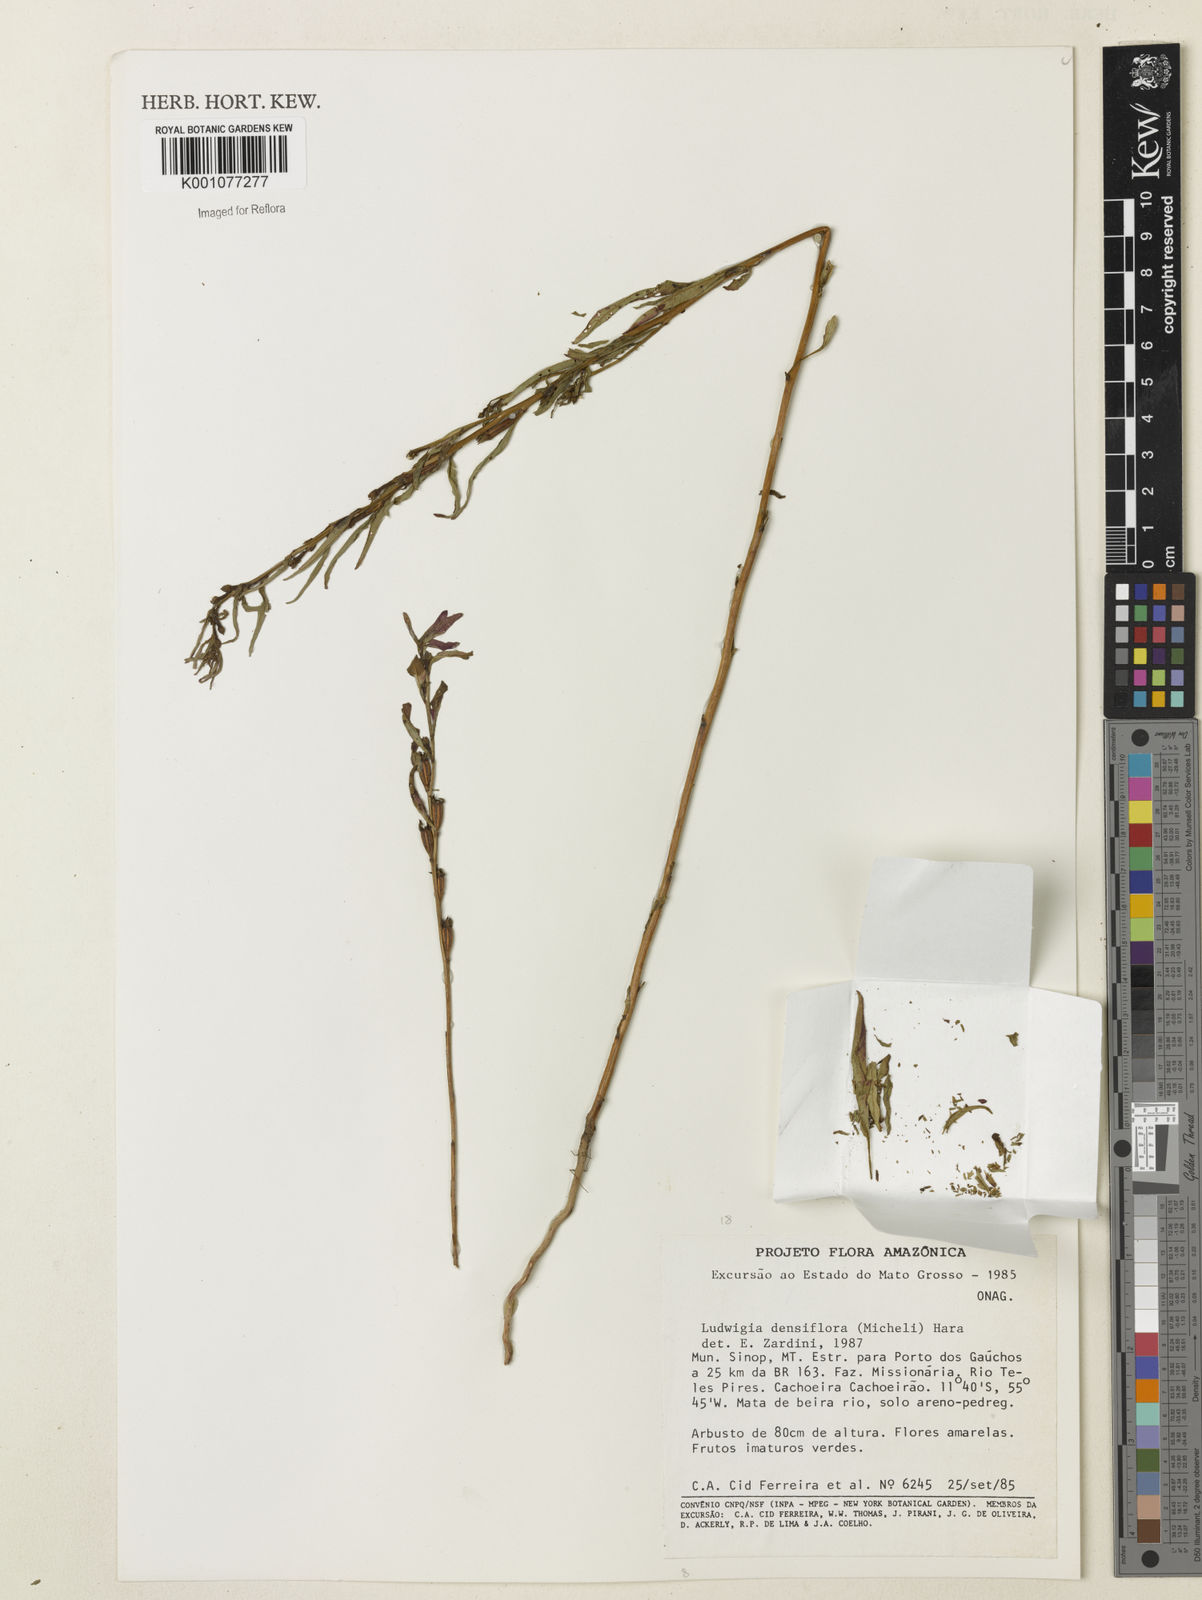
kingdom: Plantae
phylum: Tracheophyta
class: Magnoliopsida
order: Myrtales
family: Onagraceae
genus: Ludwigia
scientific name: Ludwigia densiflora
